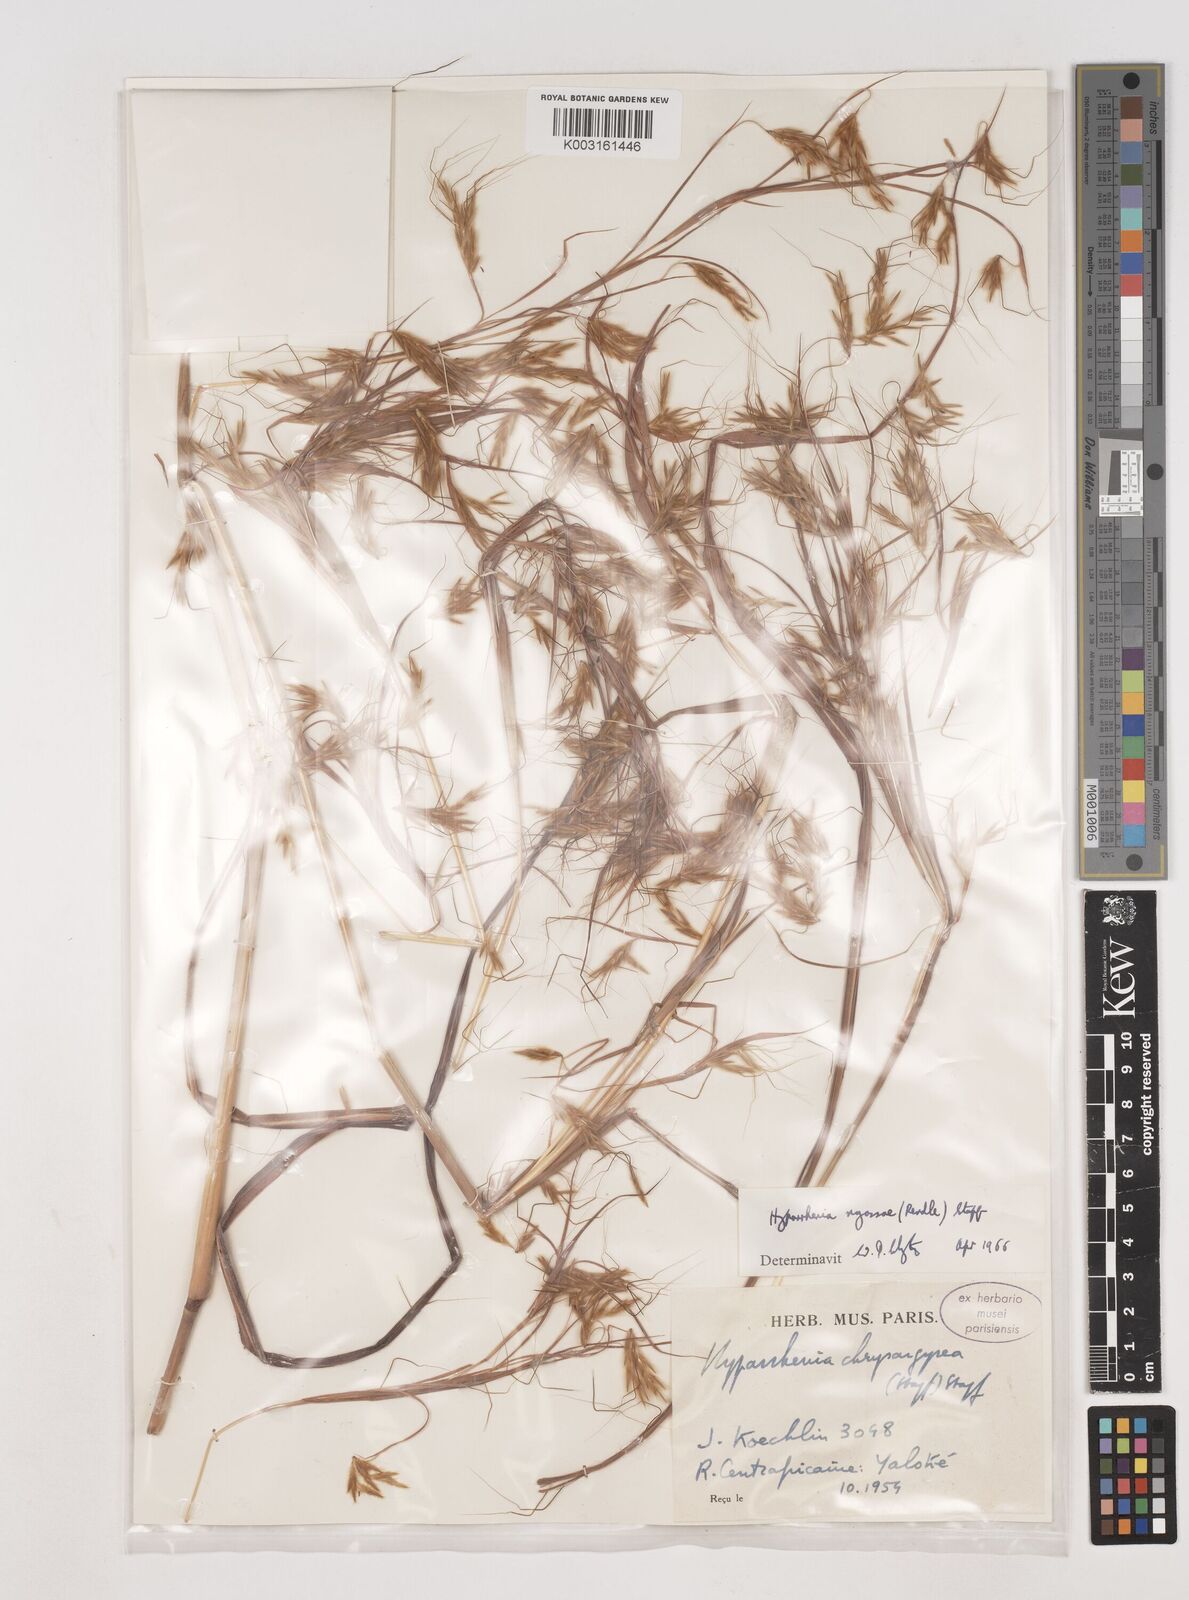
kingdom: Plantae
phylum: Tracheophyta
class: Liliopsida
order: Poales
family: Poaceae
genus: Hyparrhenia
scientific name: Hyparrhenia nyassae
